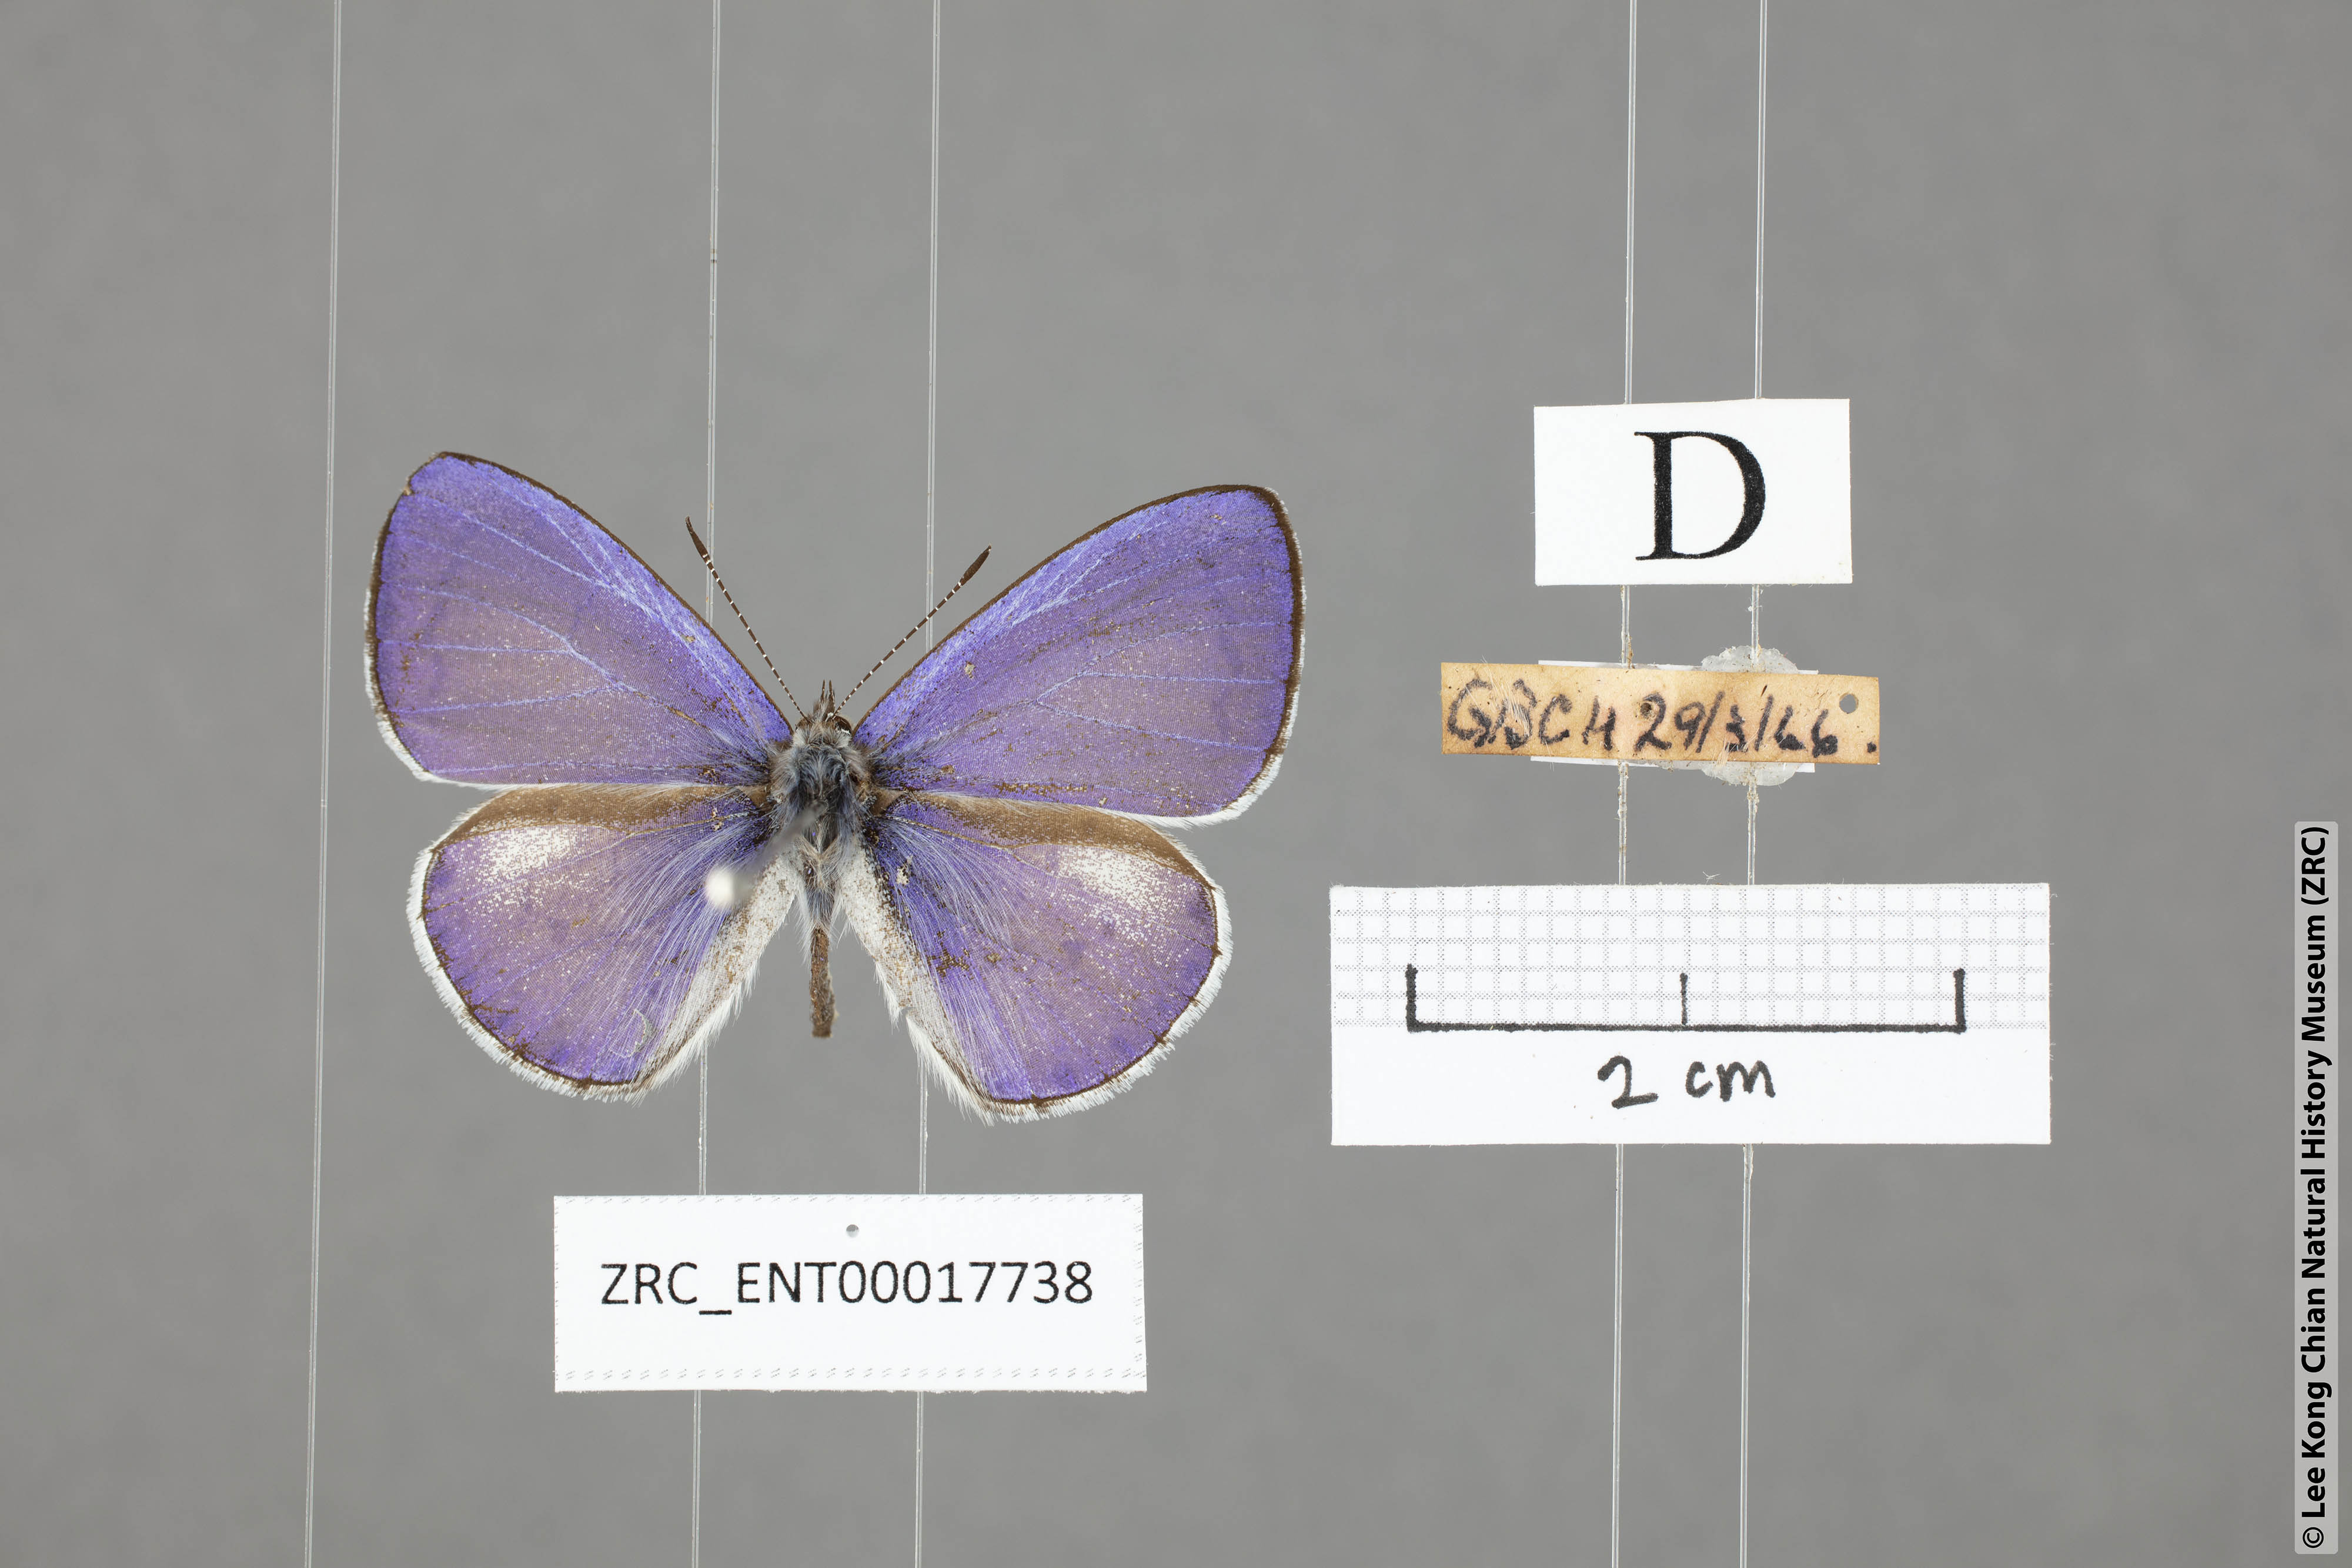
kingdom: Animalia
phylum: Arthropoda
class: Insecta
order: Lepidoptera
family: Lycaenidae
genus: Udara
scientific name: Udara
